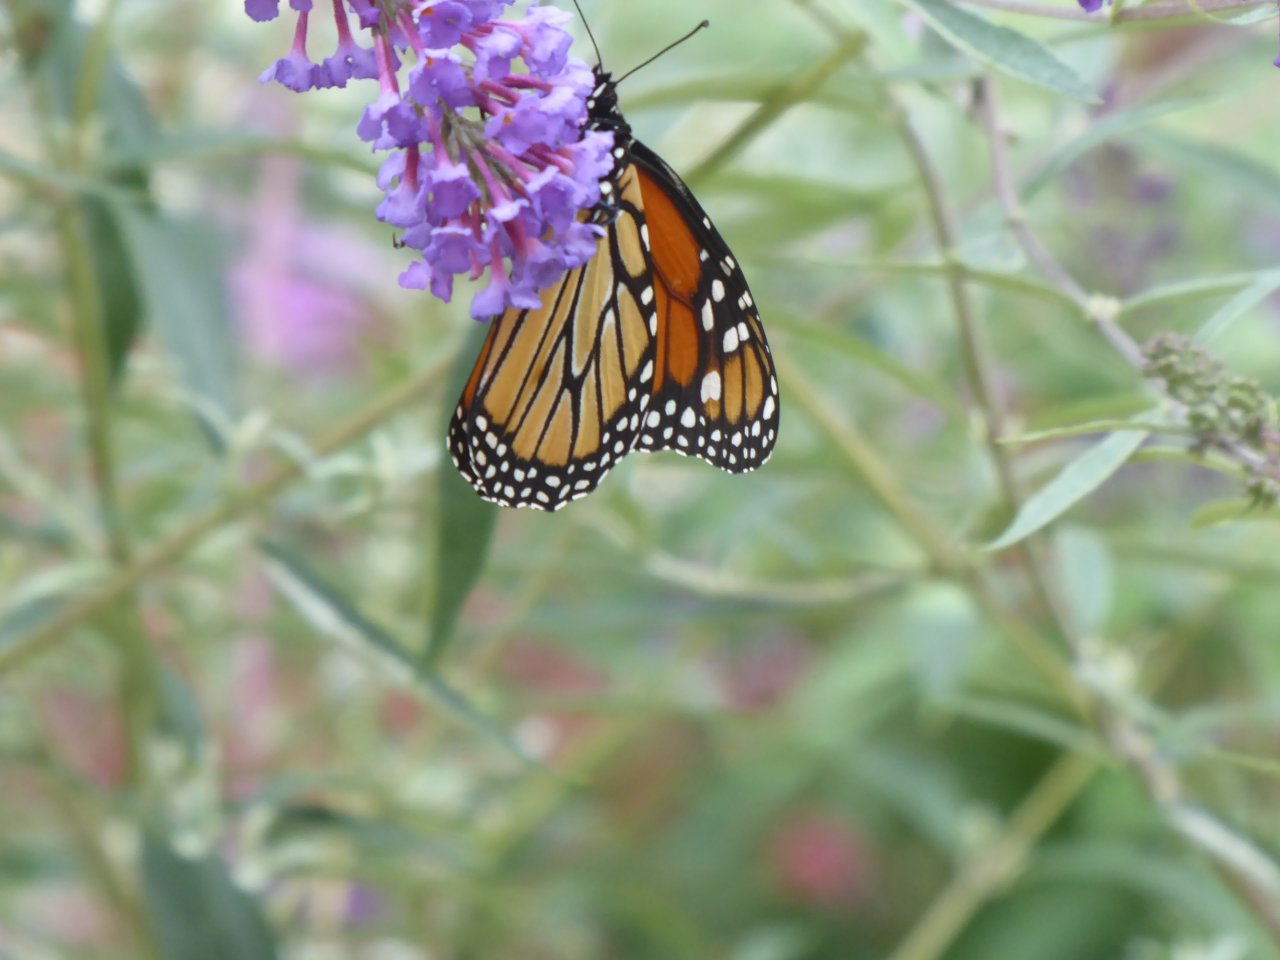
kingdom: Animalia
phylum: Arthropoda
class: Insecta
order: Lepidoptera
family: Nymphalidae
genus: Danaus
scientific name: Danaus plexippus
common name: Monarch
